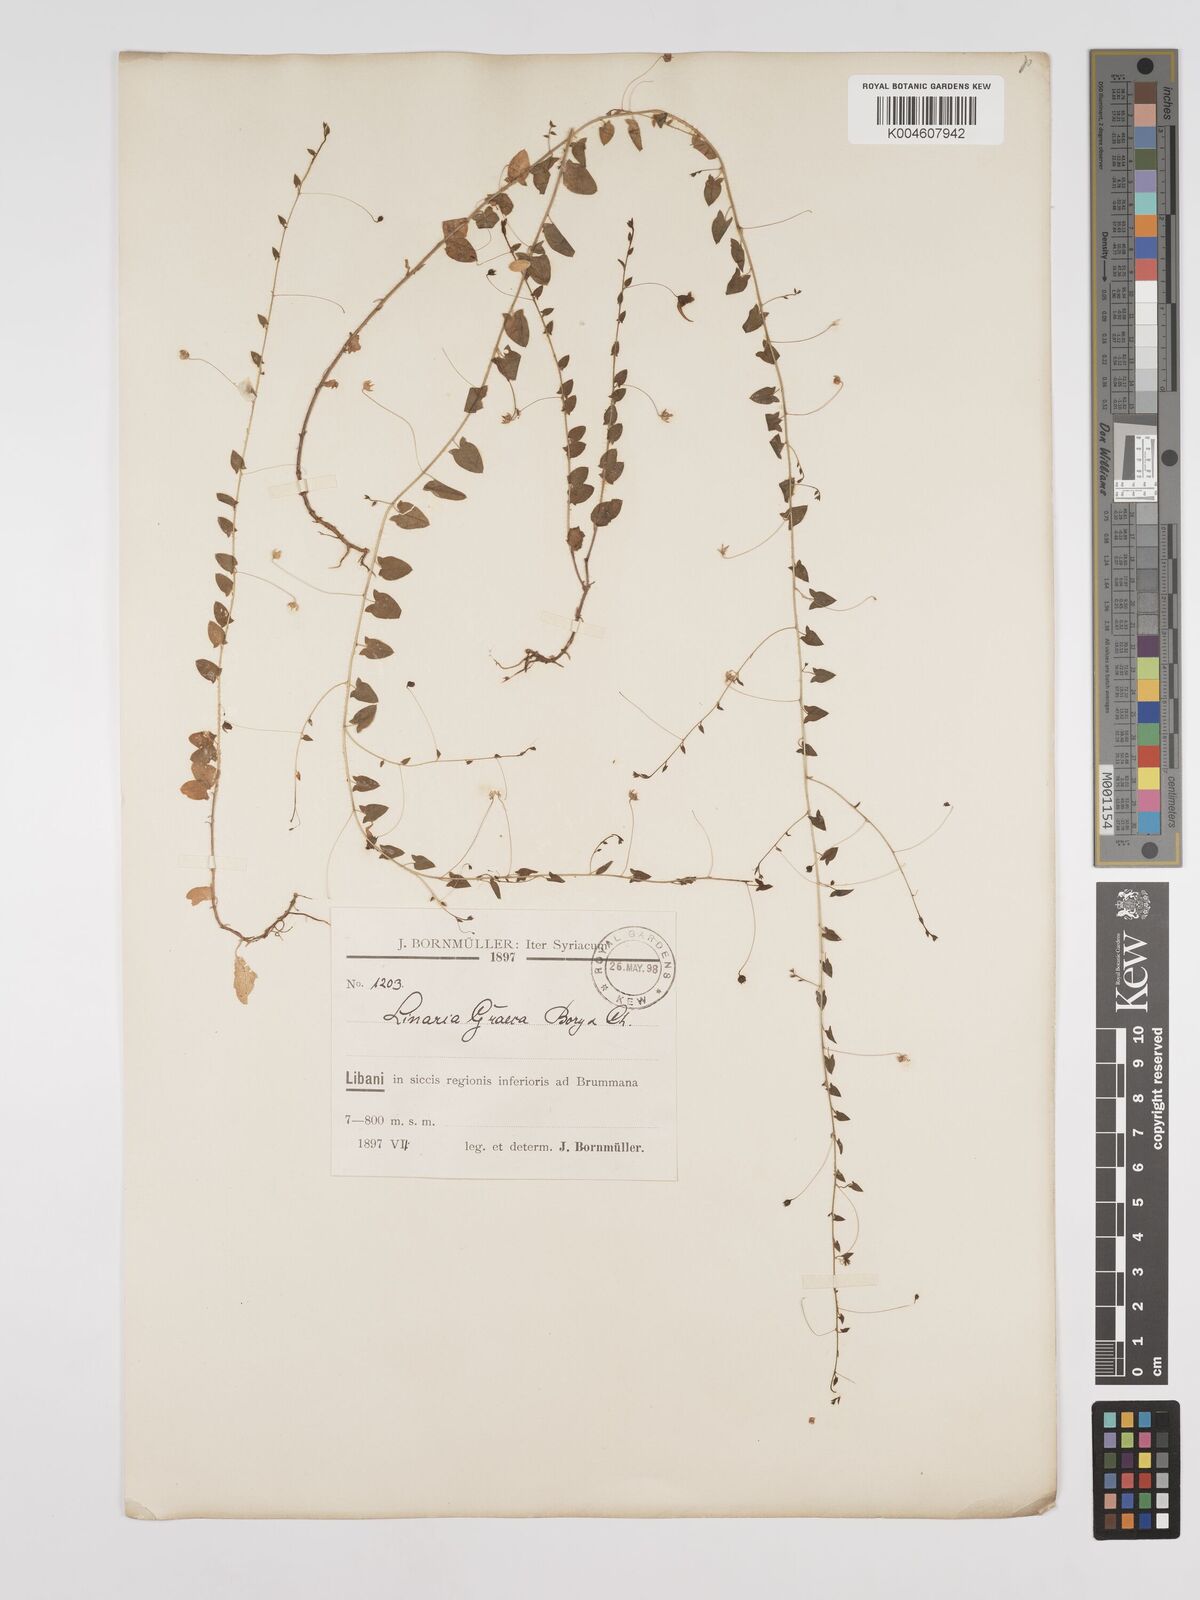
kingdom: Plantae
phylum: Tracheophyta
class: Magnoliopsida
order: Lamiales
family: Plantaginaceae
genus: Kickxia
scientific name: Kickxia commutata
